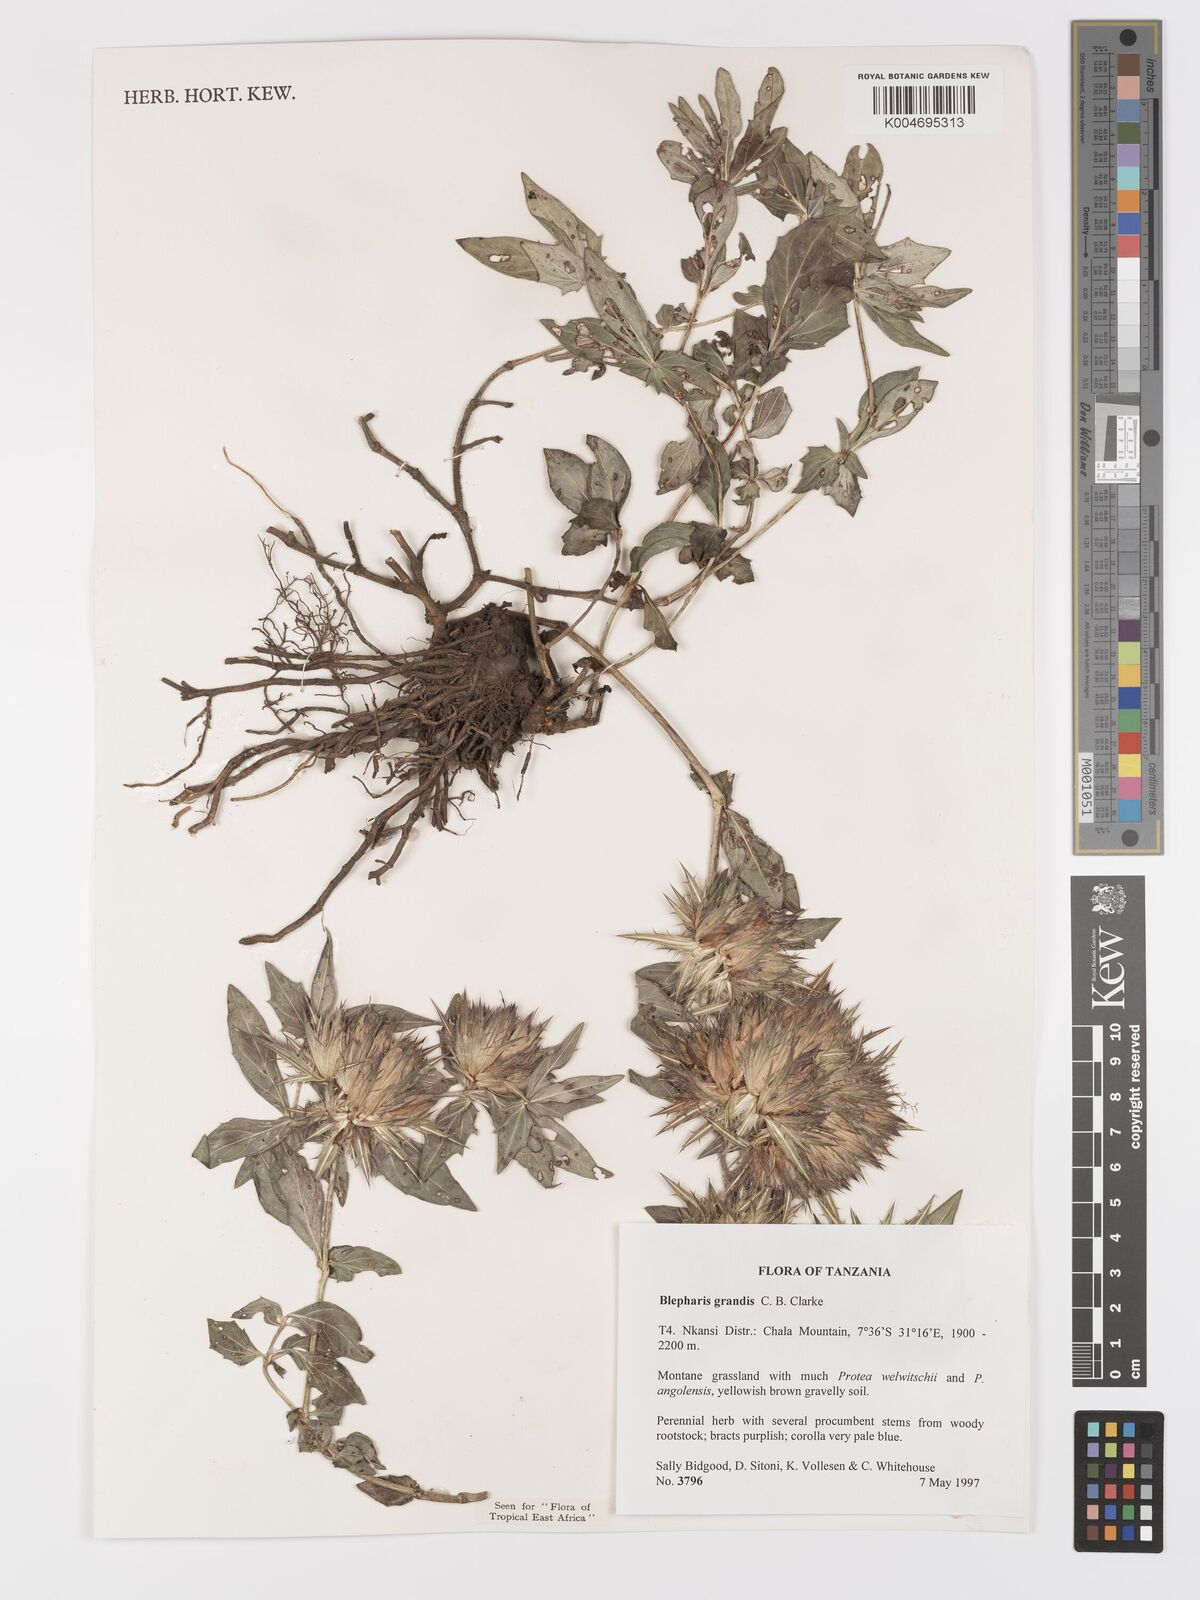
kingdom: Plantae
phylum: Tracheophyta
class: Magnoliopsida
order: Lamiales
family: Acanthaceae
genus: Blepharis
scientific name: Blepharis grandis
